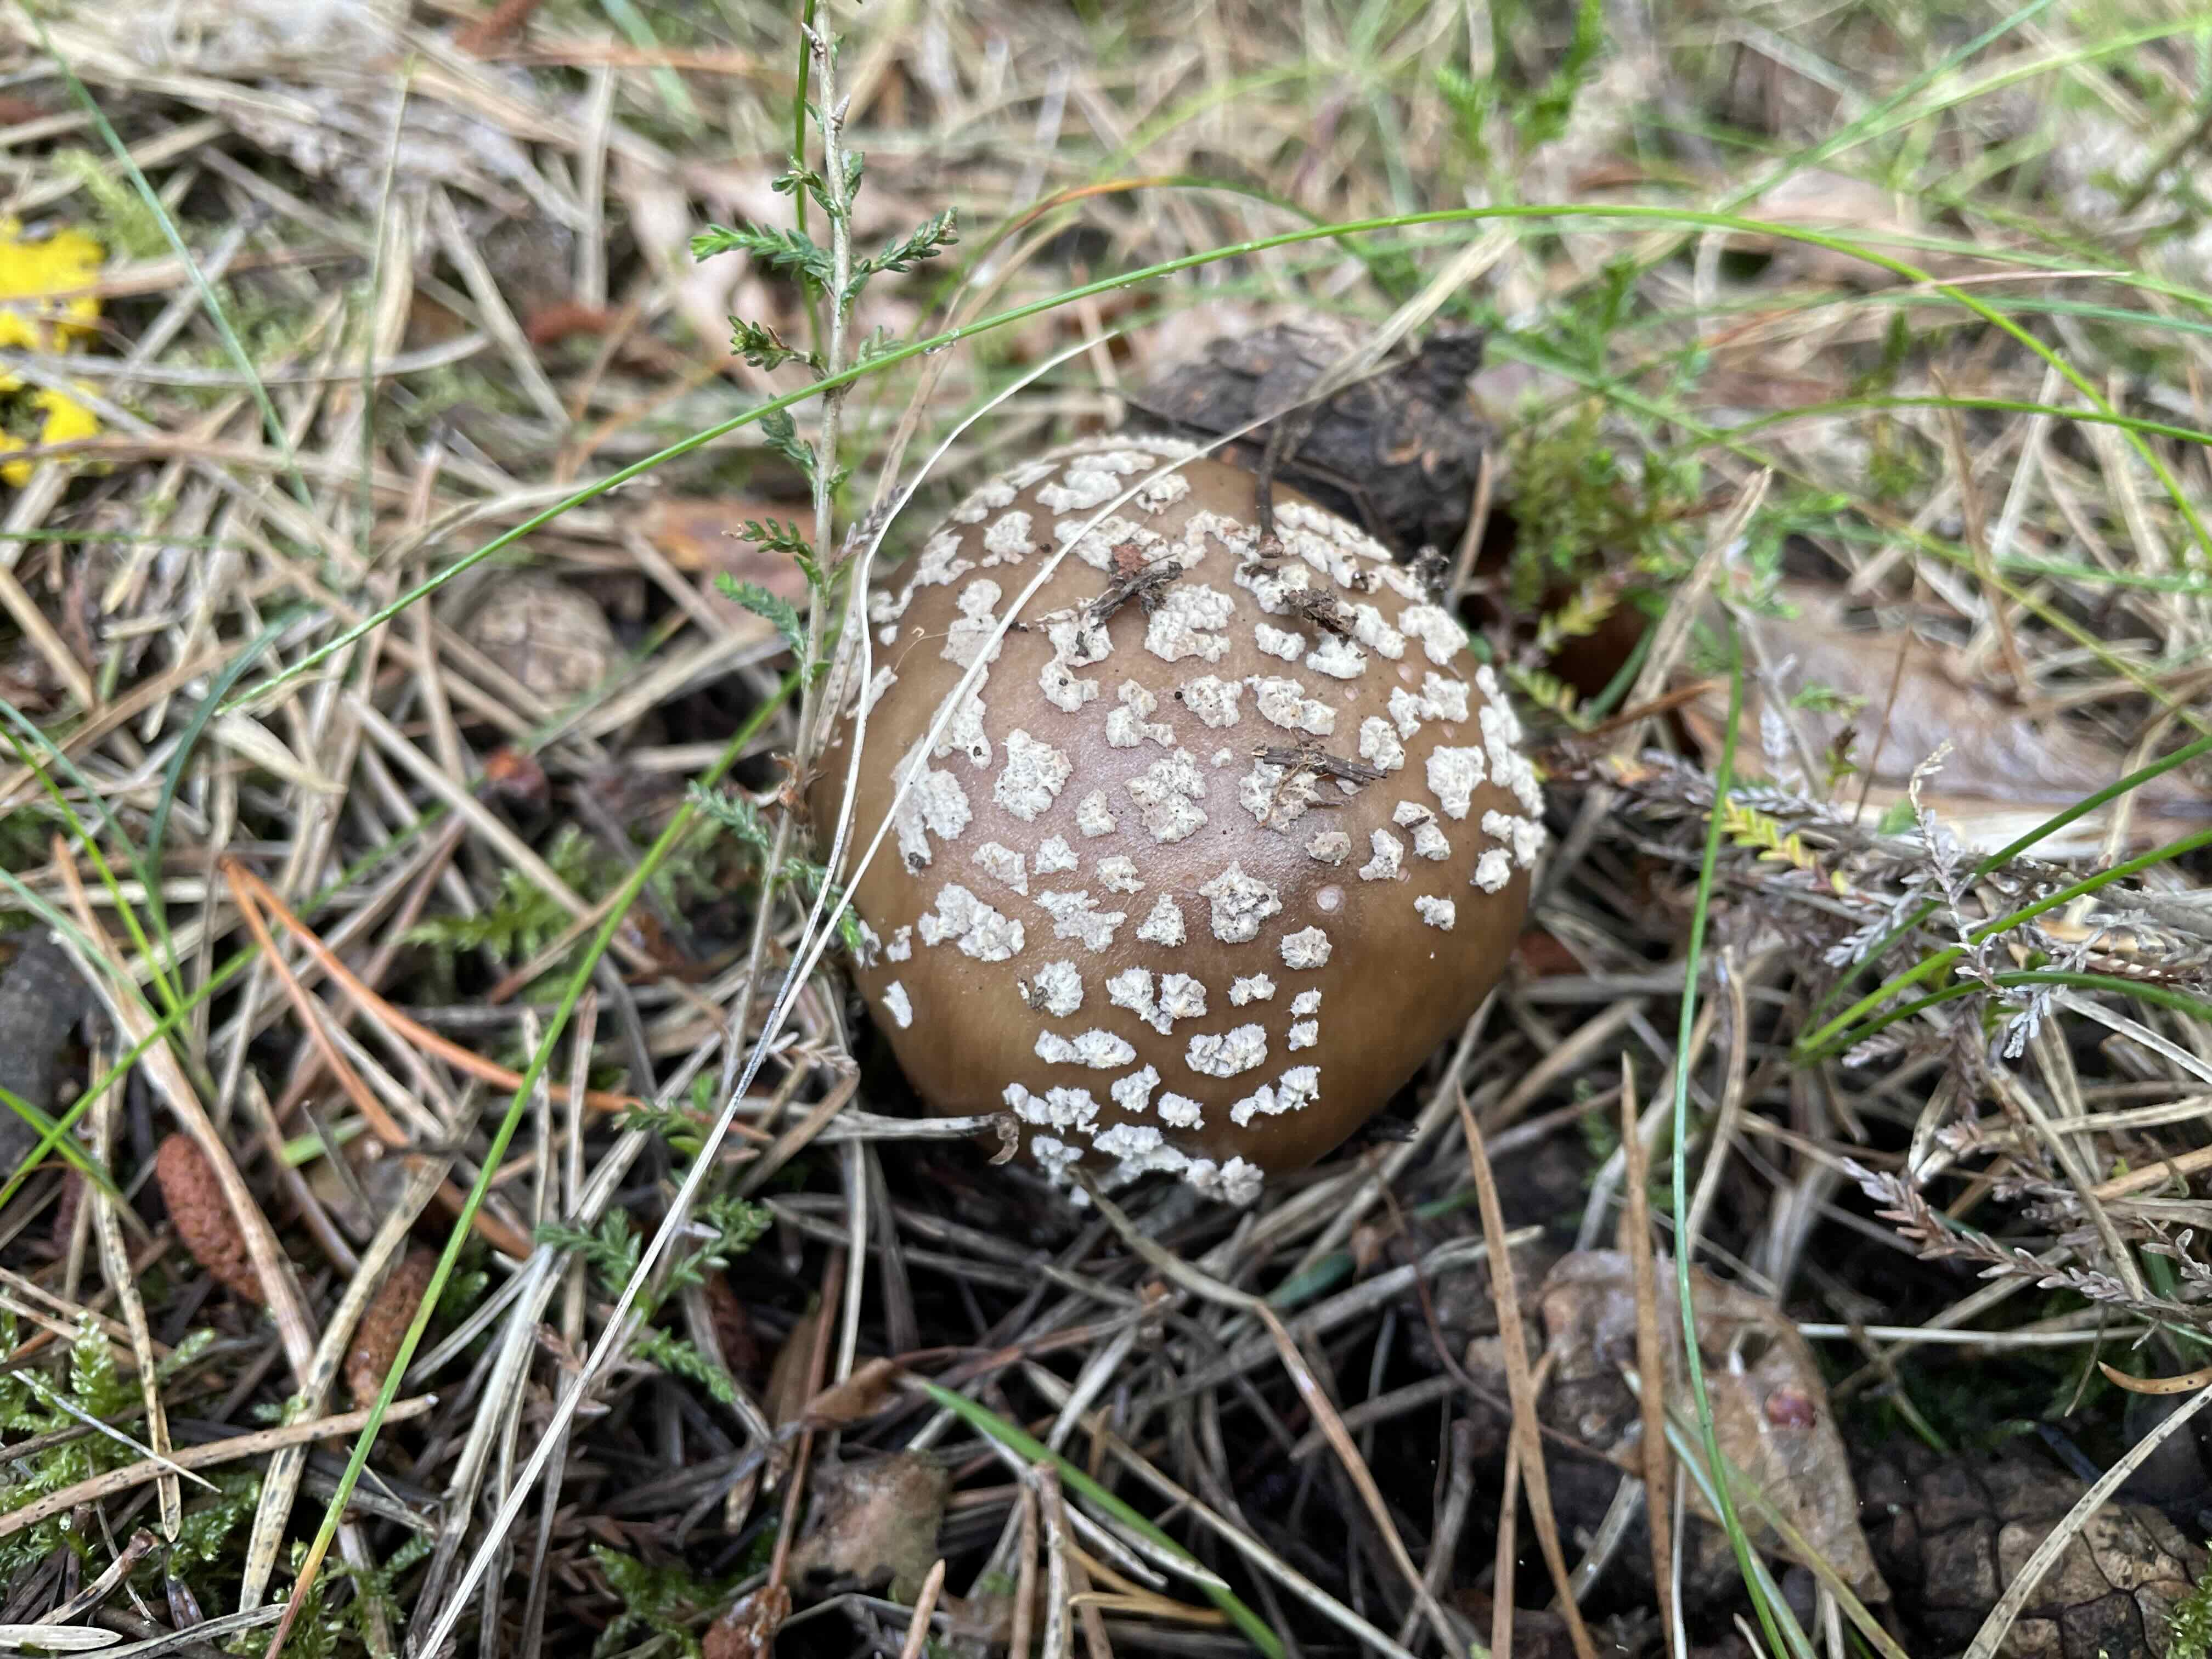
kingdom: Fungi
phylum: Basidiomycota
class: Agaricomycetes
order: Agaricales
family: Amanitaceae
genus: Amanita
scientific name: Amanita rubescens
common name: rødmende fluesvamp
